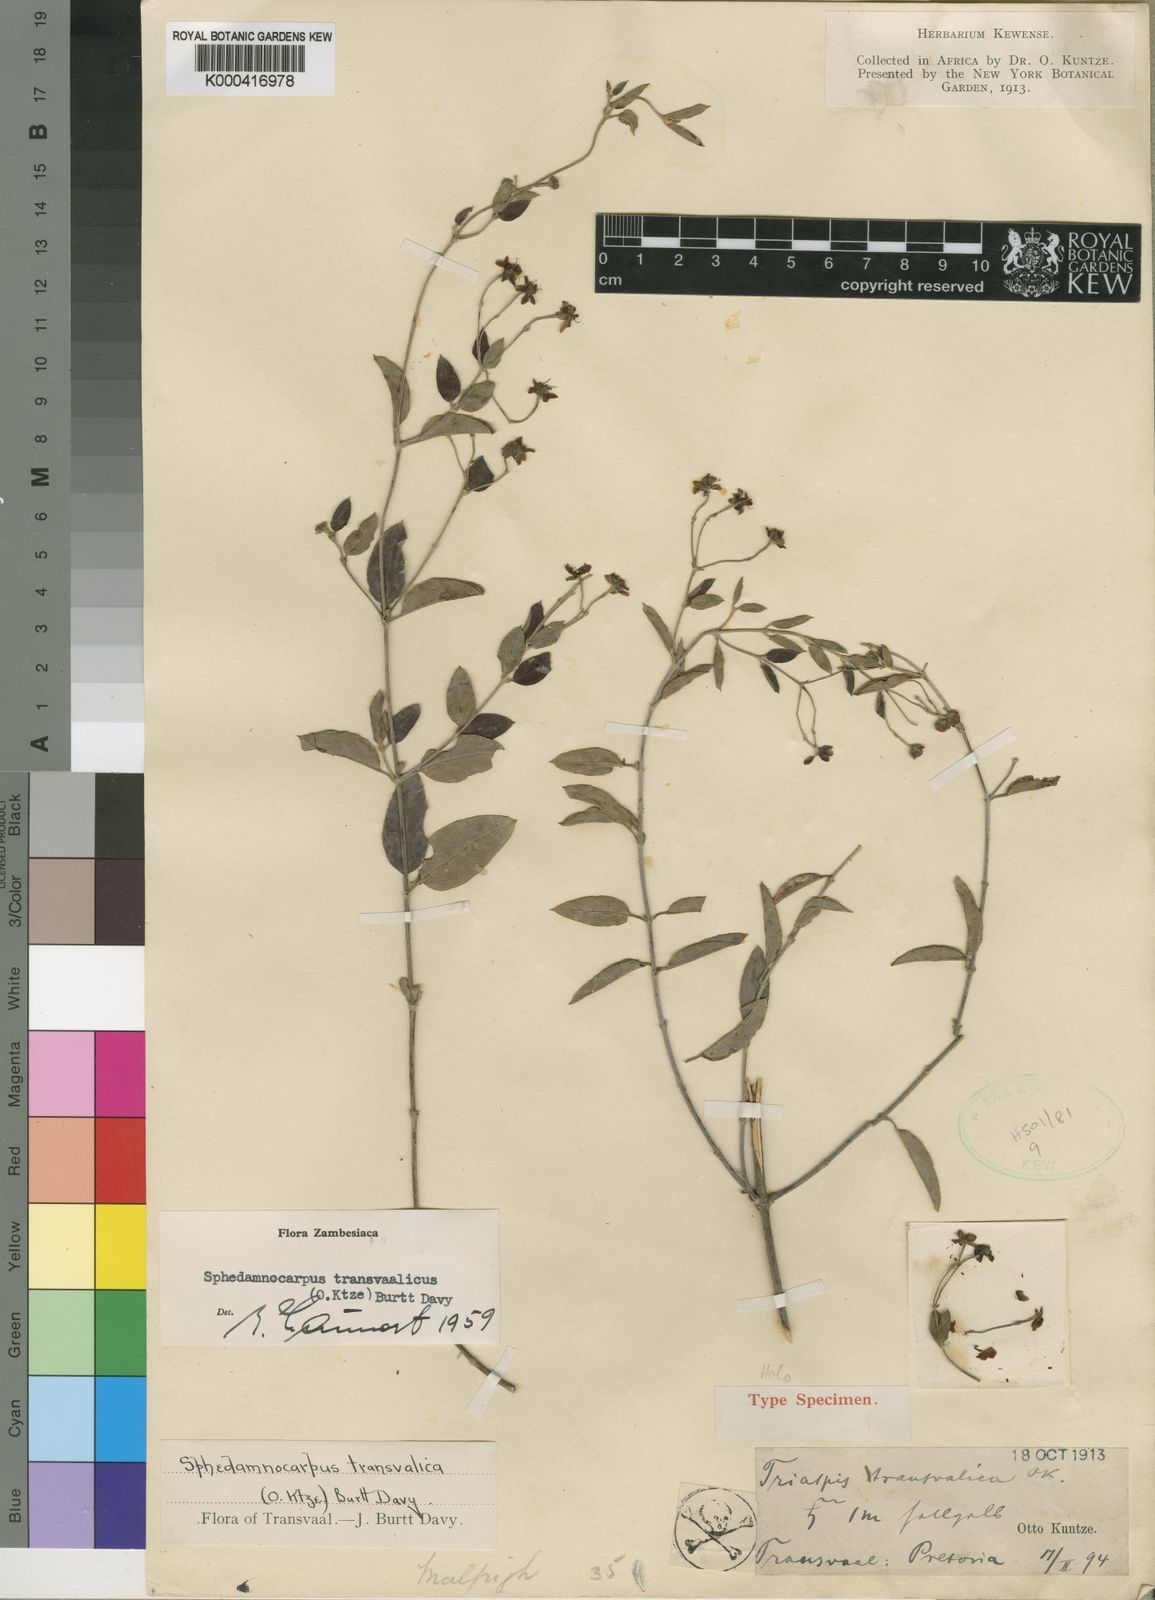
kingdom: Plantae
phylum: Tracheophyta
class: Magnoliopsida
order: Malpighiales
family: Malpighiaceae
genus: Sphedamnocarpus
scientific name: Sphedamnocarpus galphimiifolius
